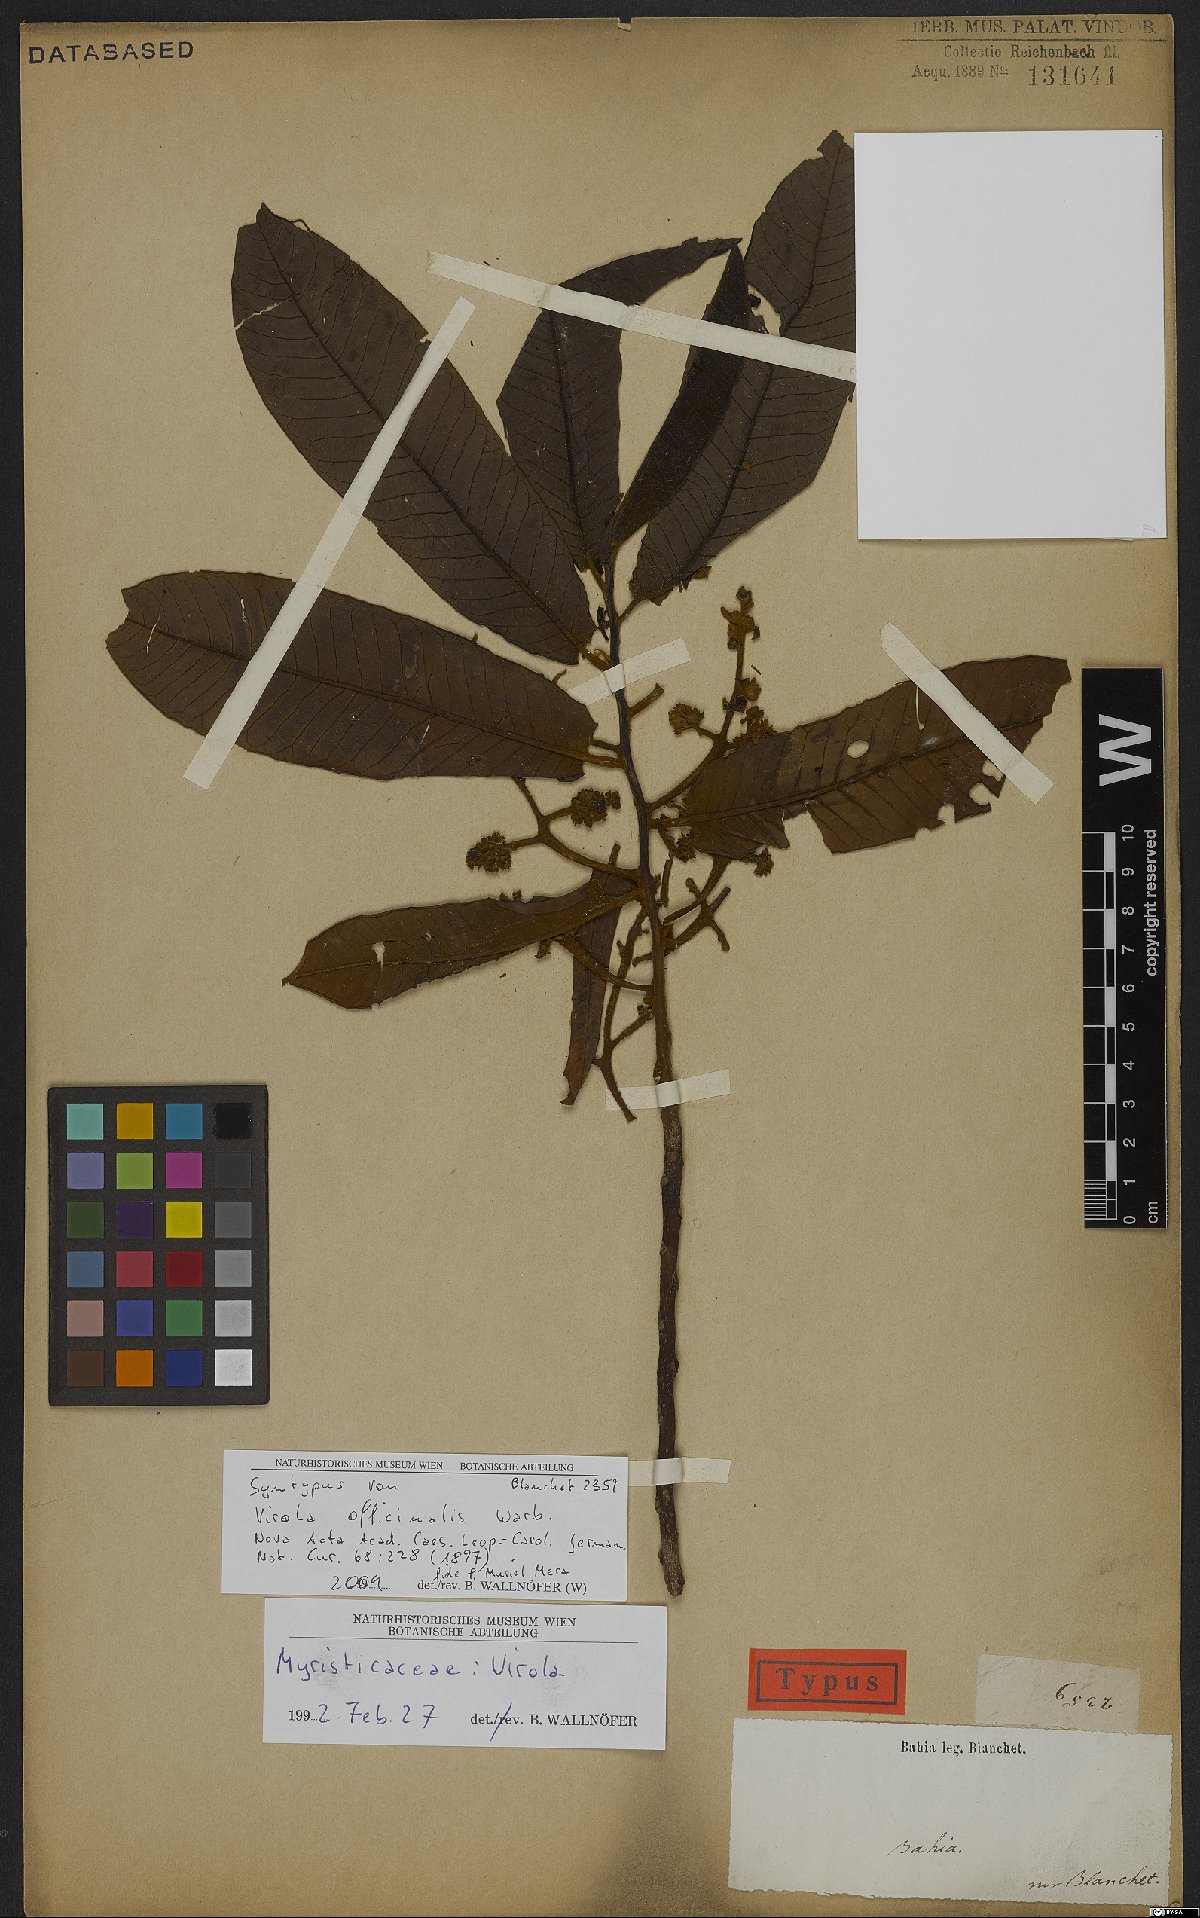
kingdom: Plantae
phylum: Tracheophyta
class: Magnoliopsida
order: Magnoliales
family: Myristicaceae
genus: Virola
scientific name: Virola officinalis
